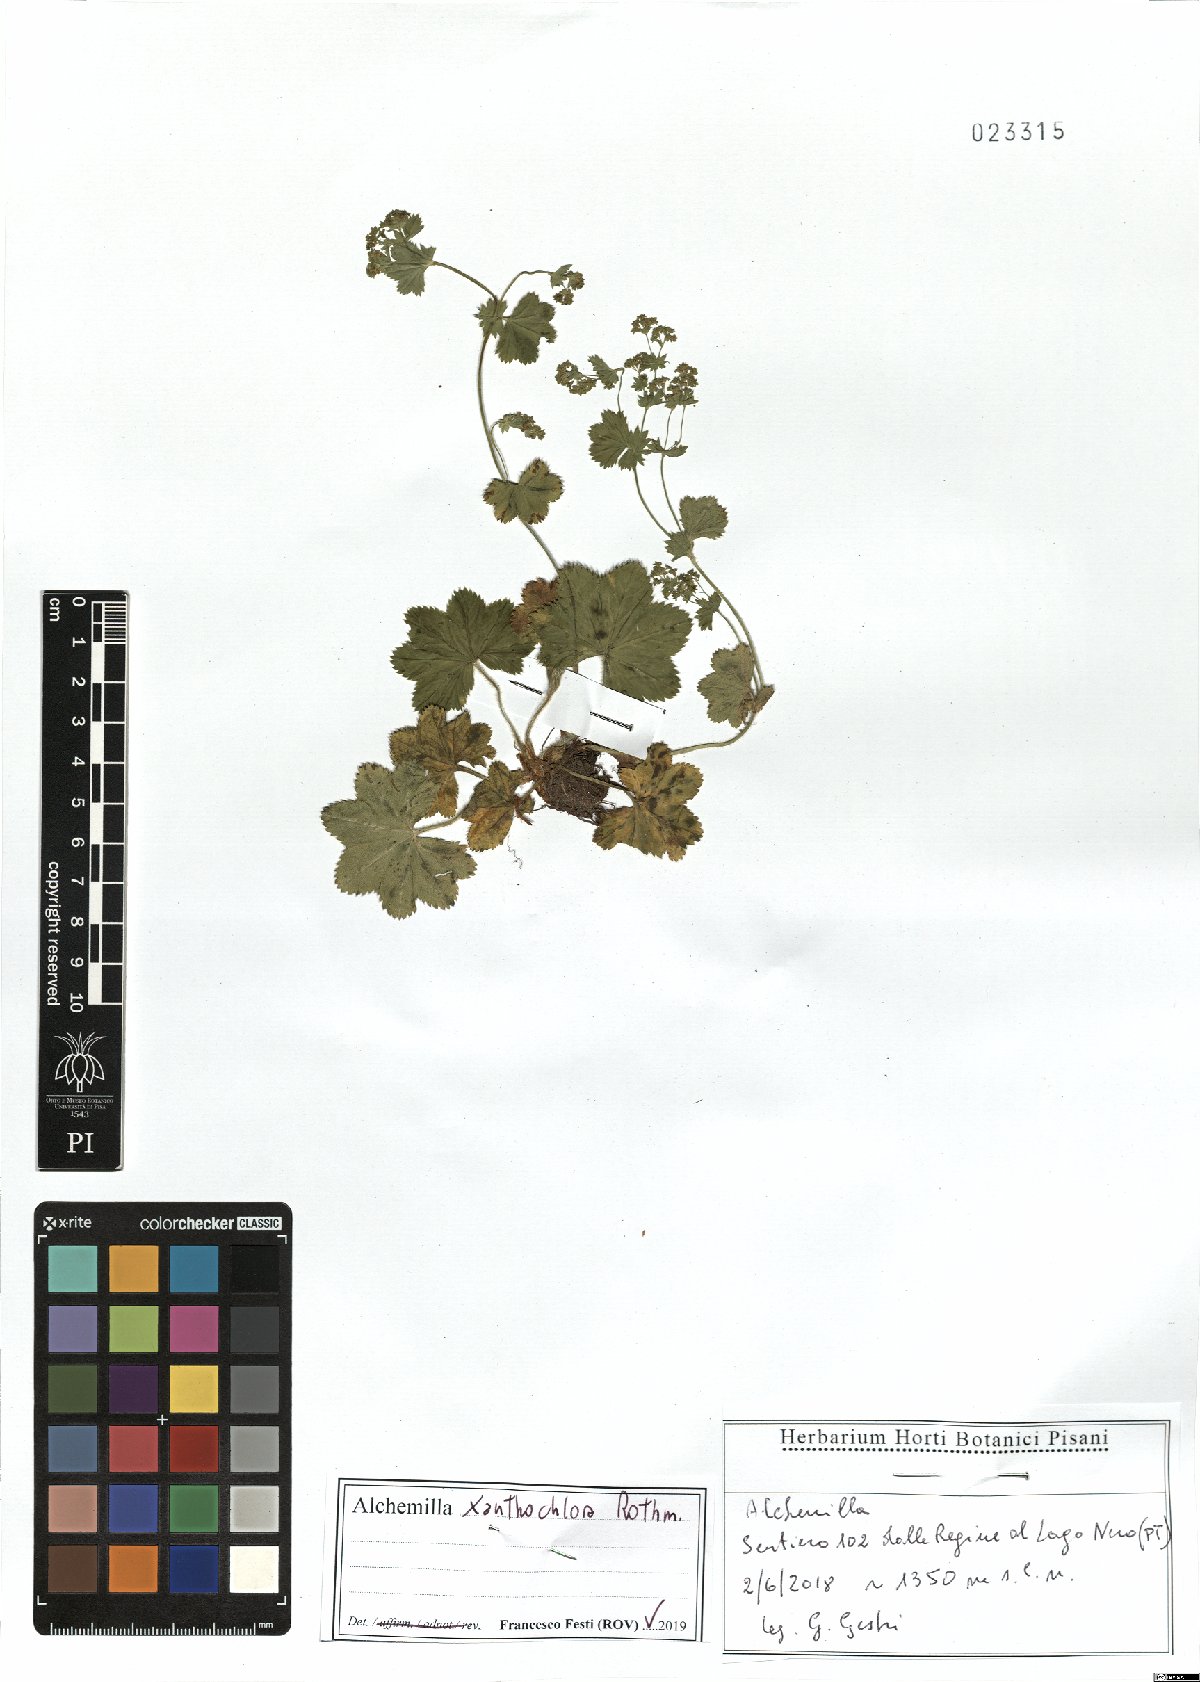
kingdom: Plantae
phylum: Tracheophyta
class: Magnoliopsida
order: Rosales
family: Rosaceae
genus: Alchemilla
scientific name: Alchemilla xanthochlora
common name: Intermediate lady's-mantle
